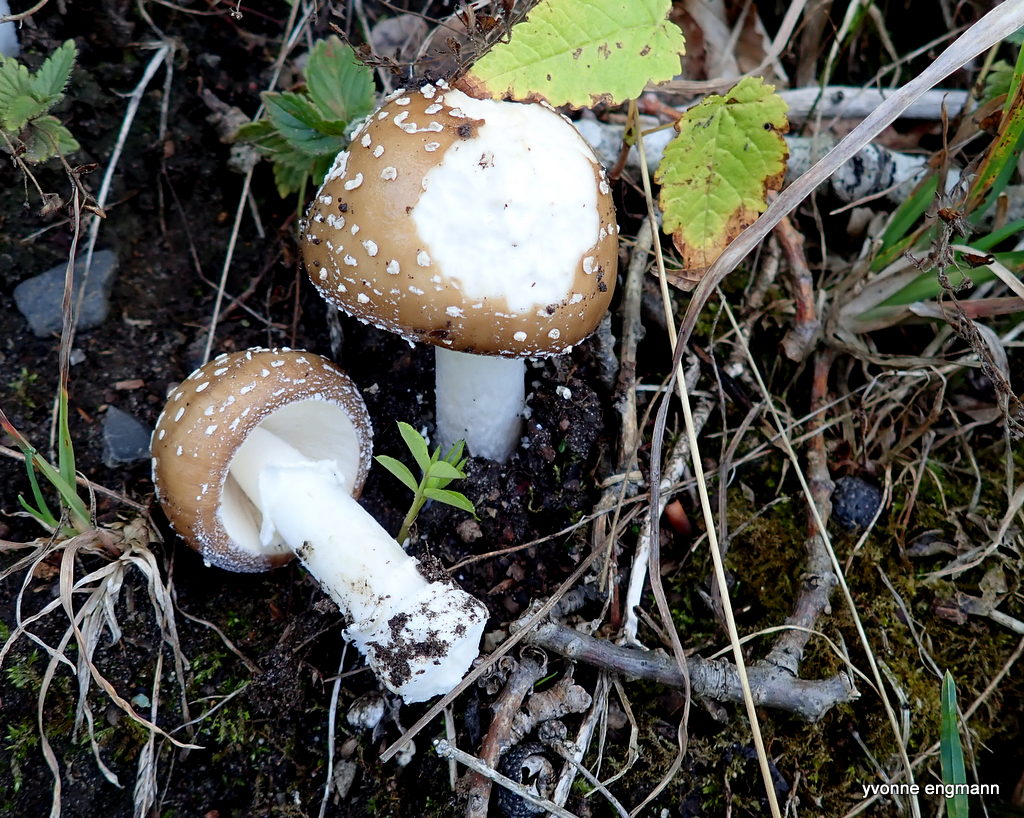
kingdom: Fungi
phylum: Basidiomycota
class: Agaricomycetes
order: Agaricales
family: Amanitaceae
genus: Amanita
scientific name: Amanita pantherina
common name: panter-fluesvamp
